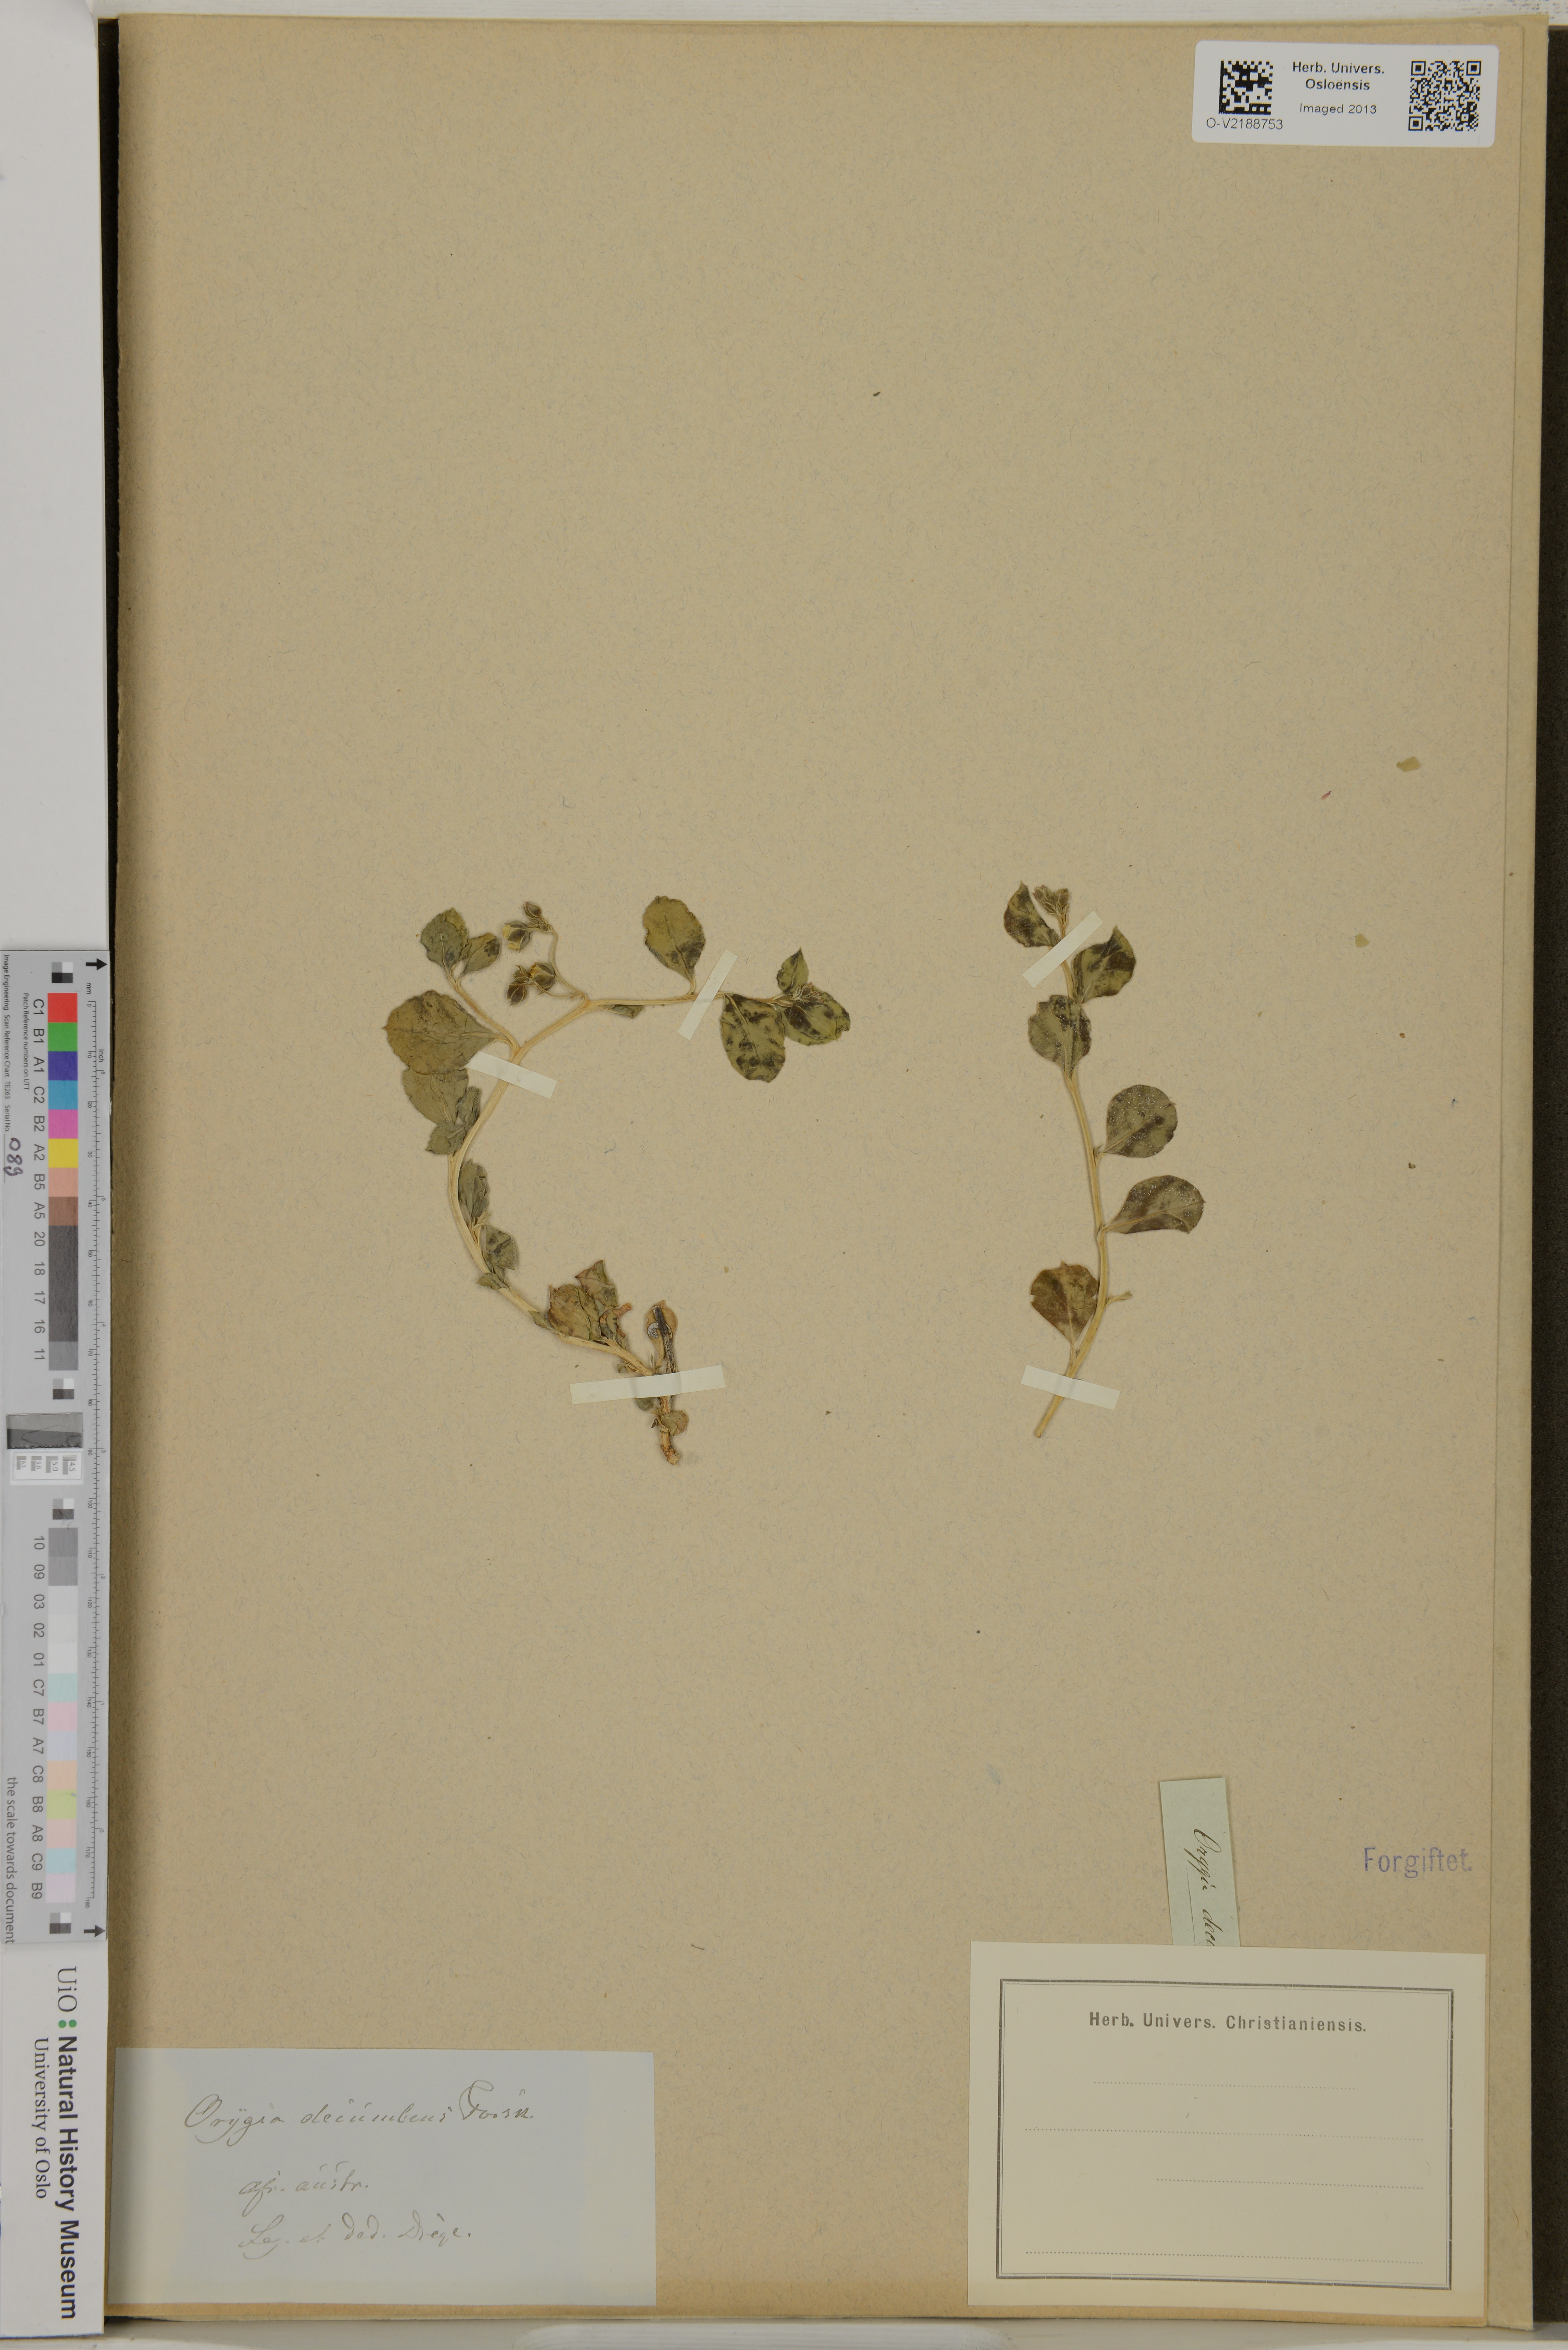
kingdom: Plantae
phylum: Tracheophyta
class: Magnoliopsida
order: Caryophyllales
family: Corbichoniaceae
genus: Corbichonia
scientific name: Corbichonia decumbens
